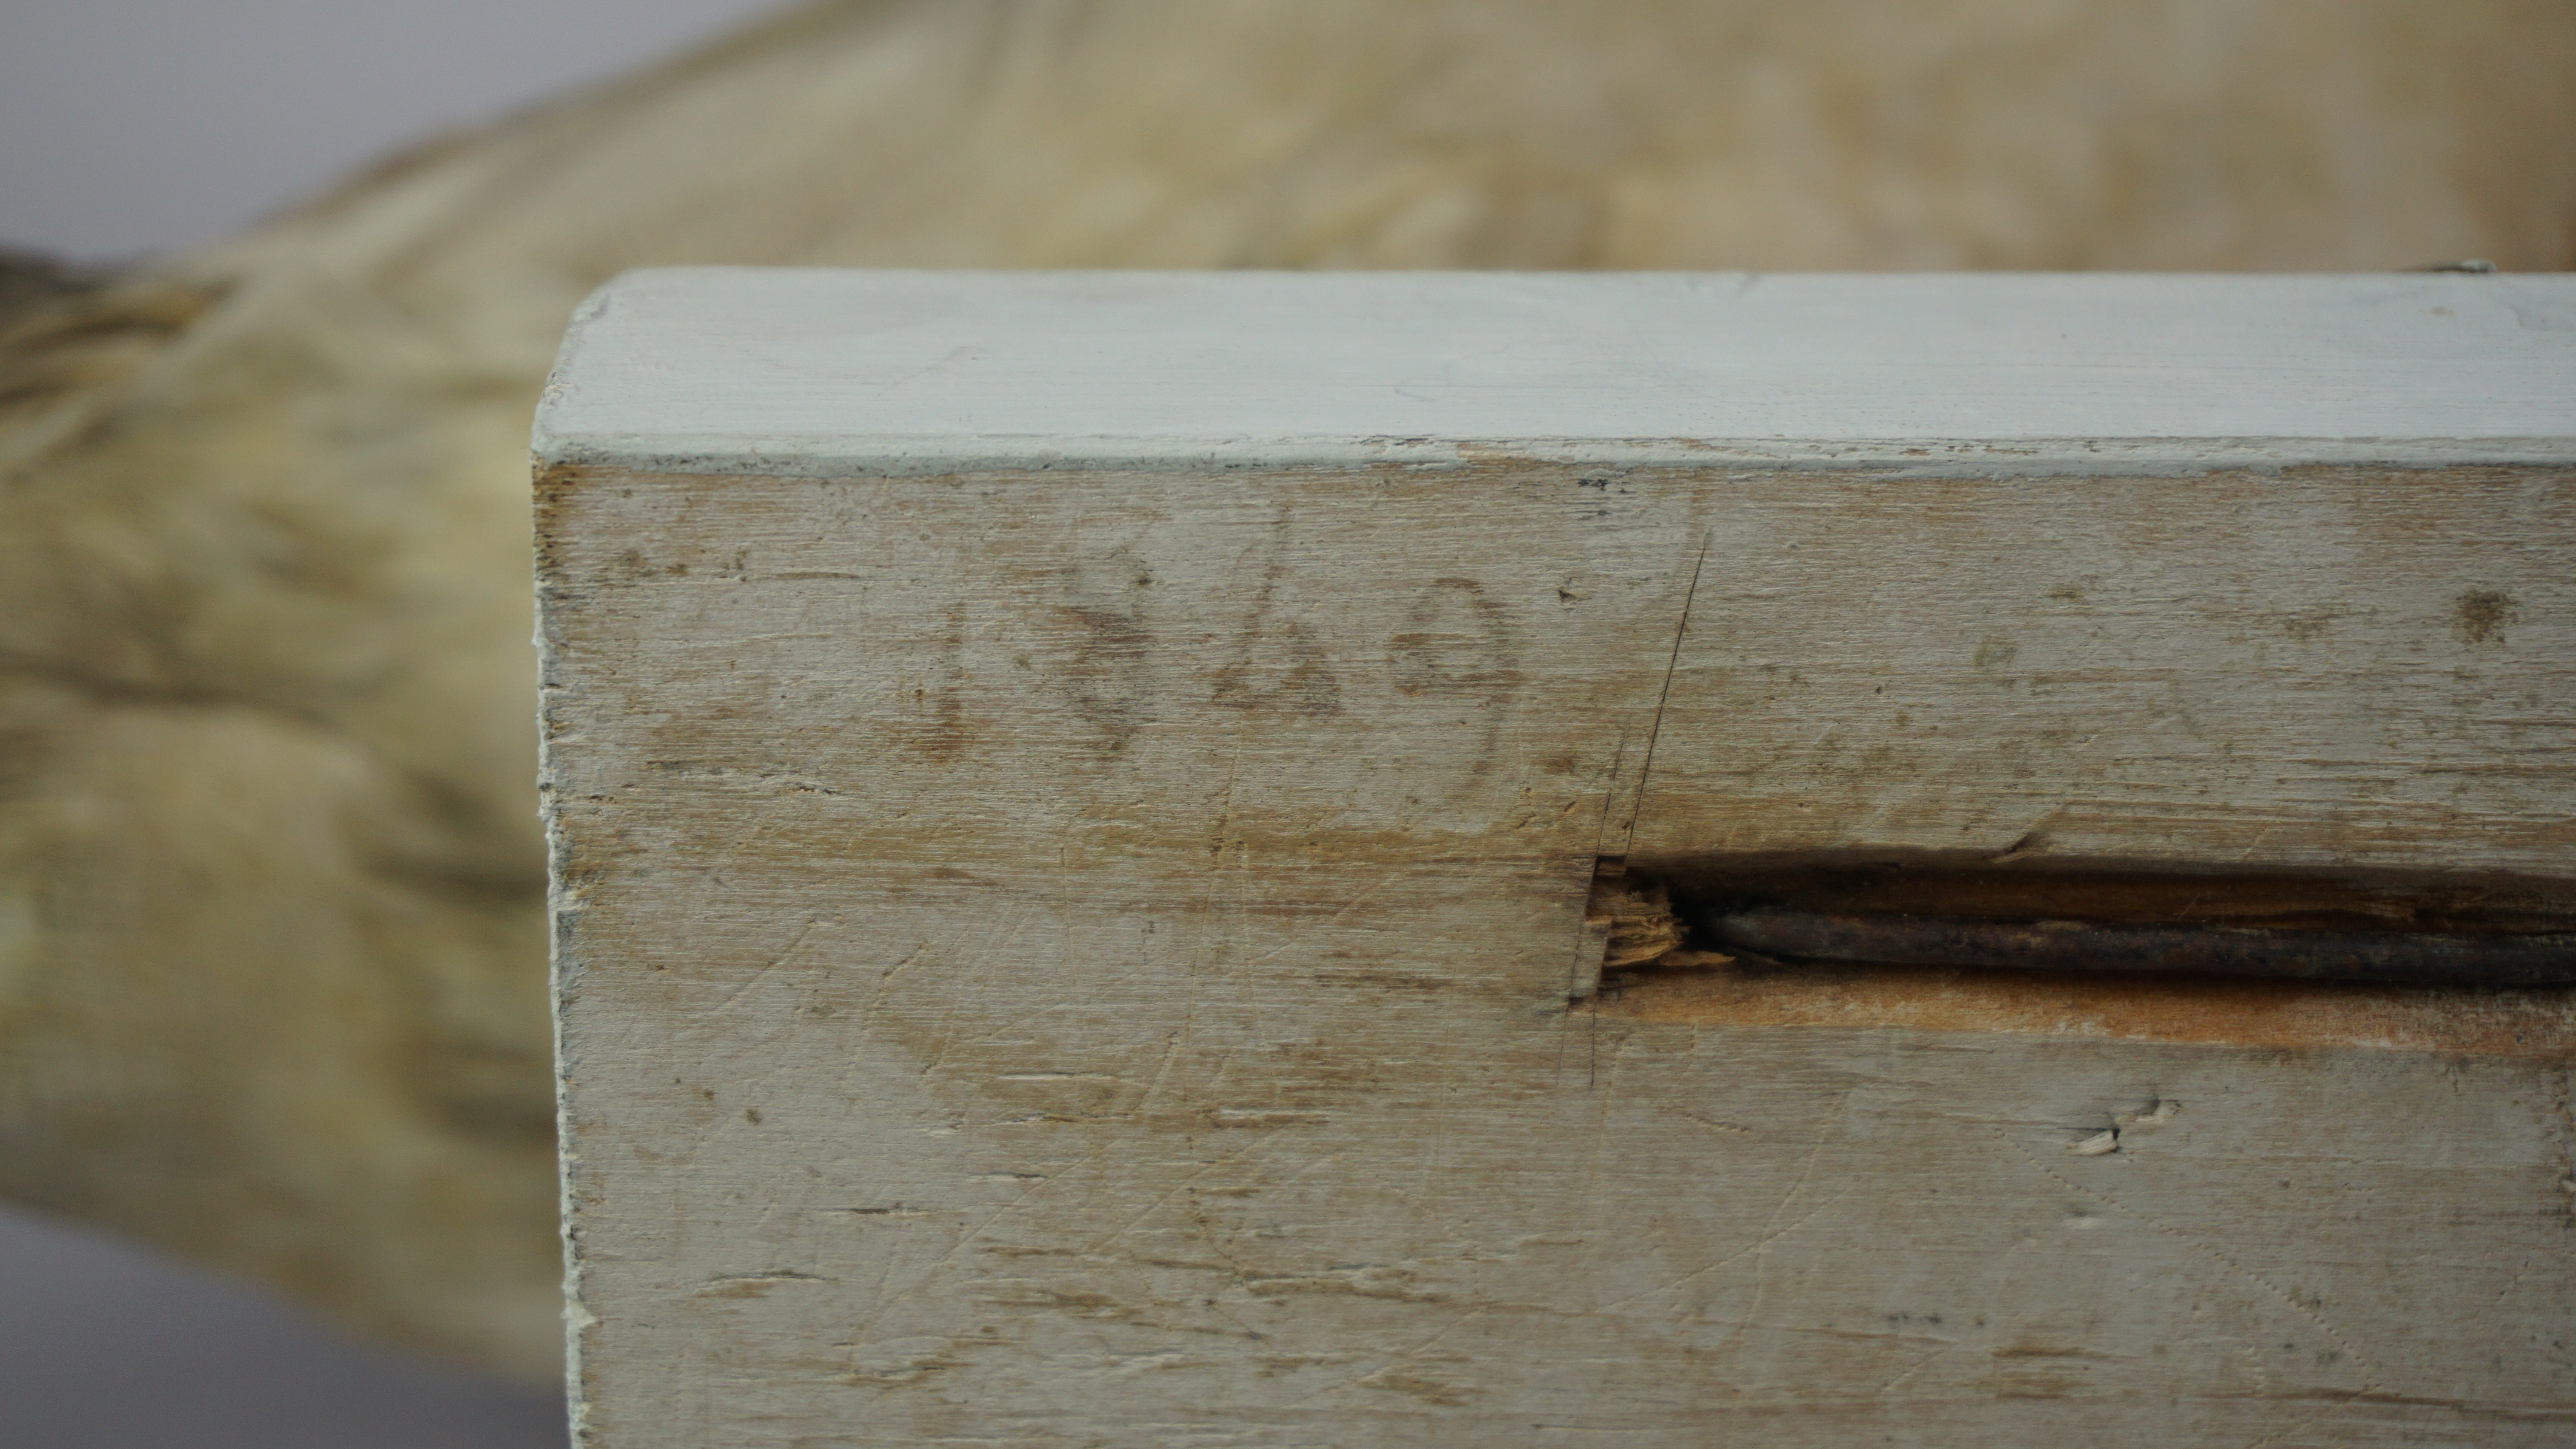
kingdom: Animalia
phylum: Chordata
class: Aves
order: Anseriformes
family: Anatidae
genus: Anas
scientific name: Anas platyrhynchos
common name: Mallard
